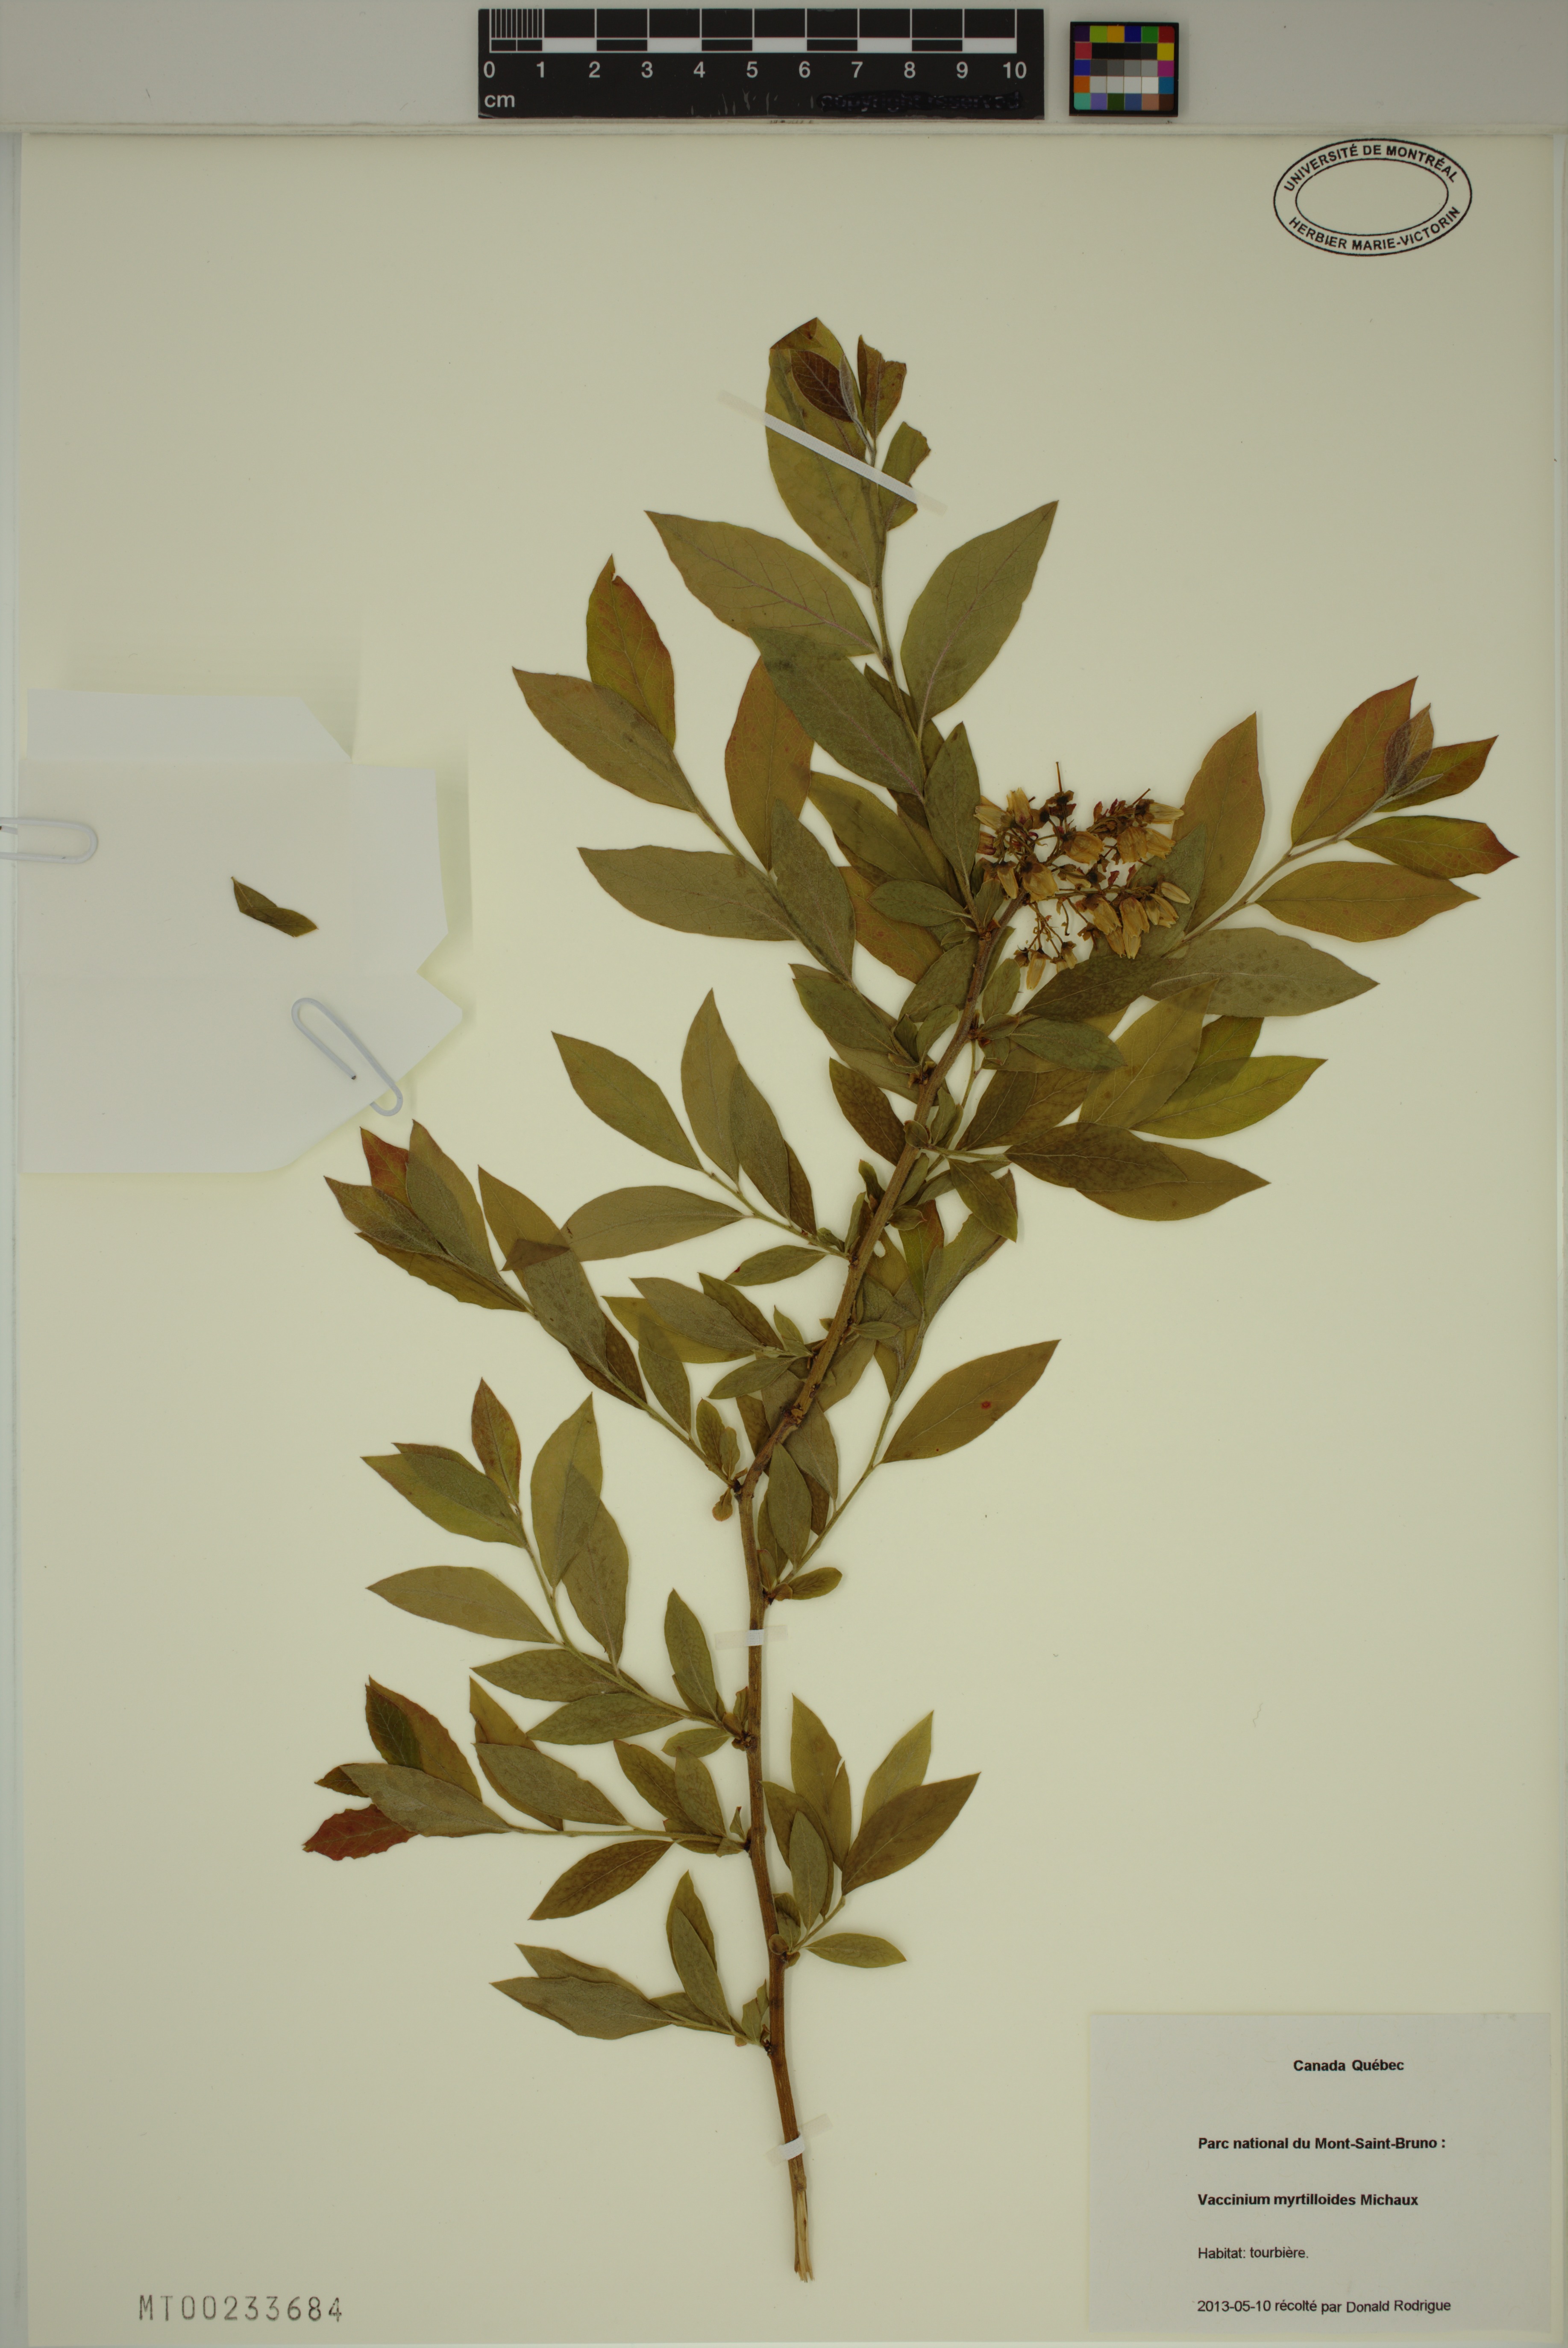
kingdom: Plantae
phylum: Tracheophyta
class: Magnoliopsida
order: Ericales
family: Ericaceae
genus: Vaccinium
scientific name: Vaccinium myrtilloides
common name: Canada blueberry
